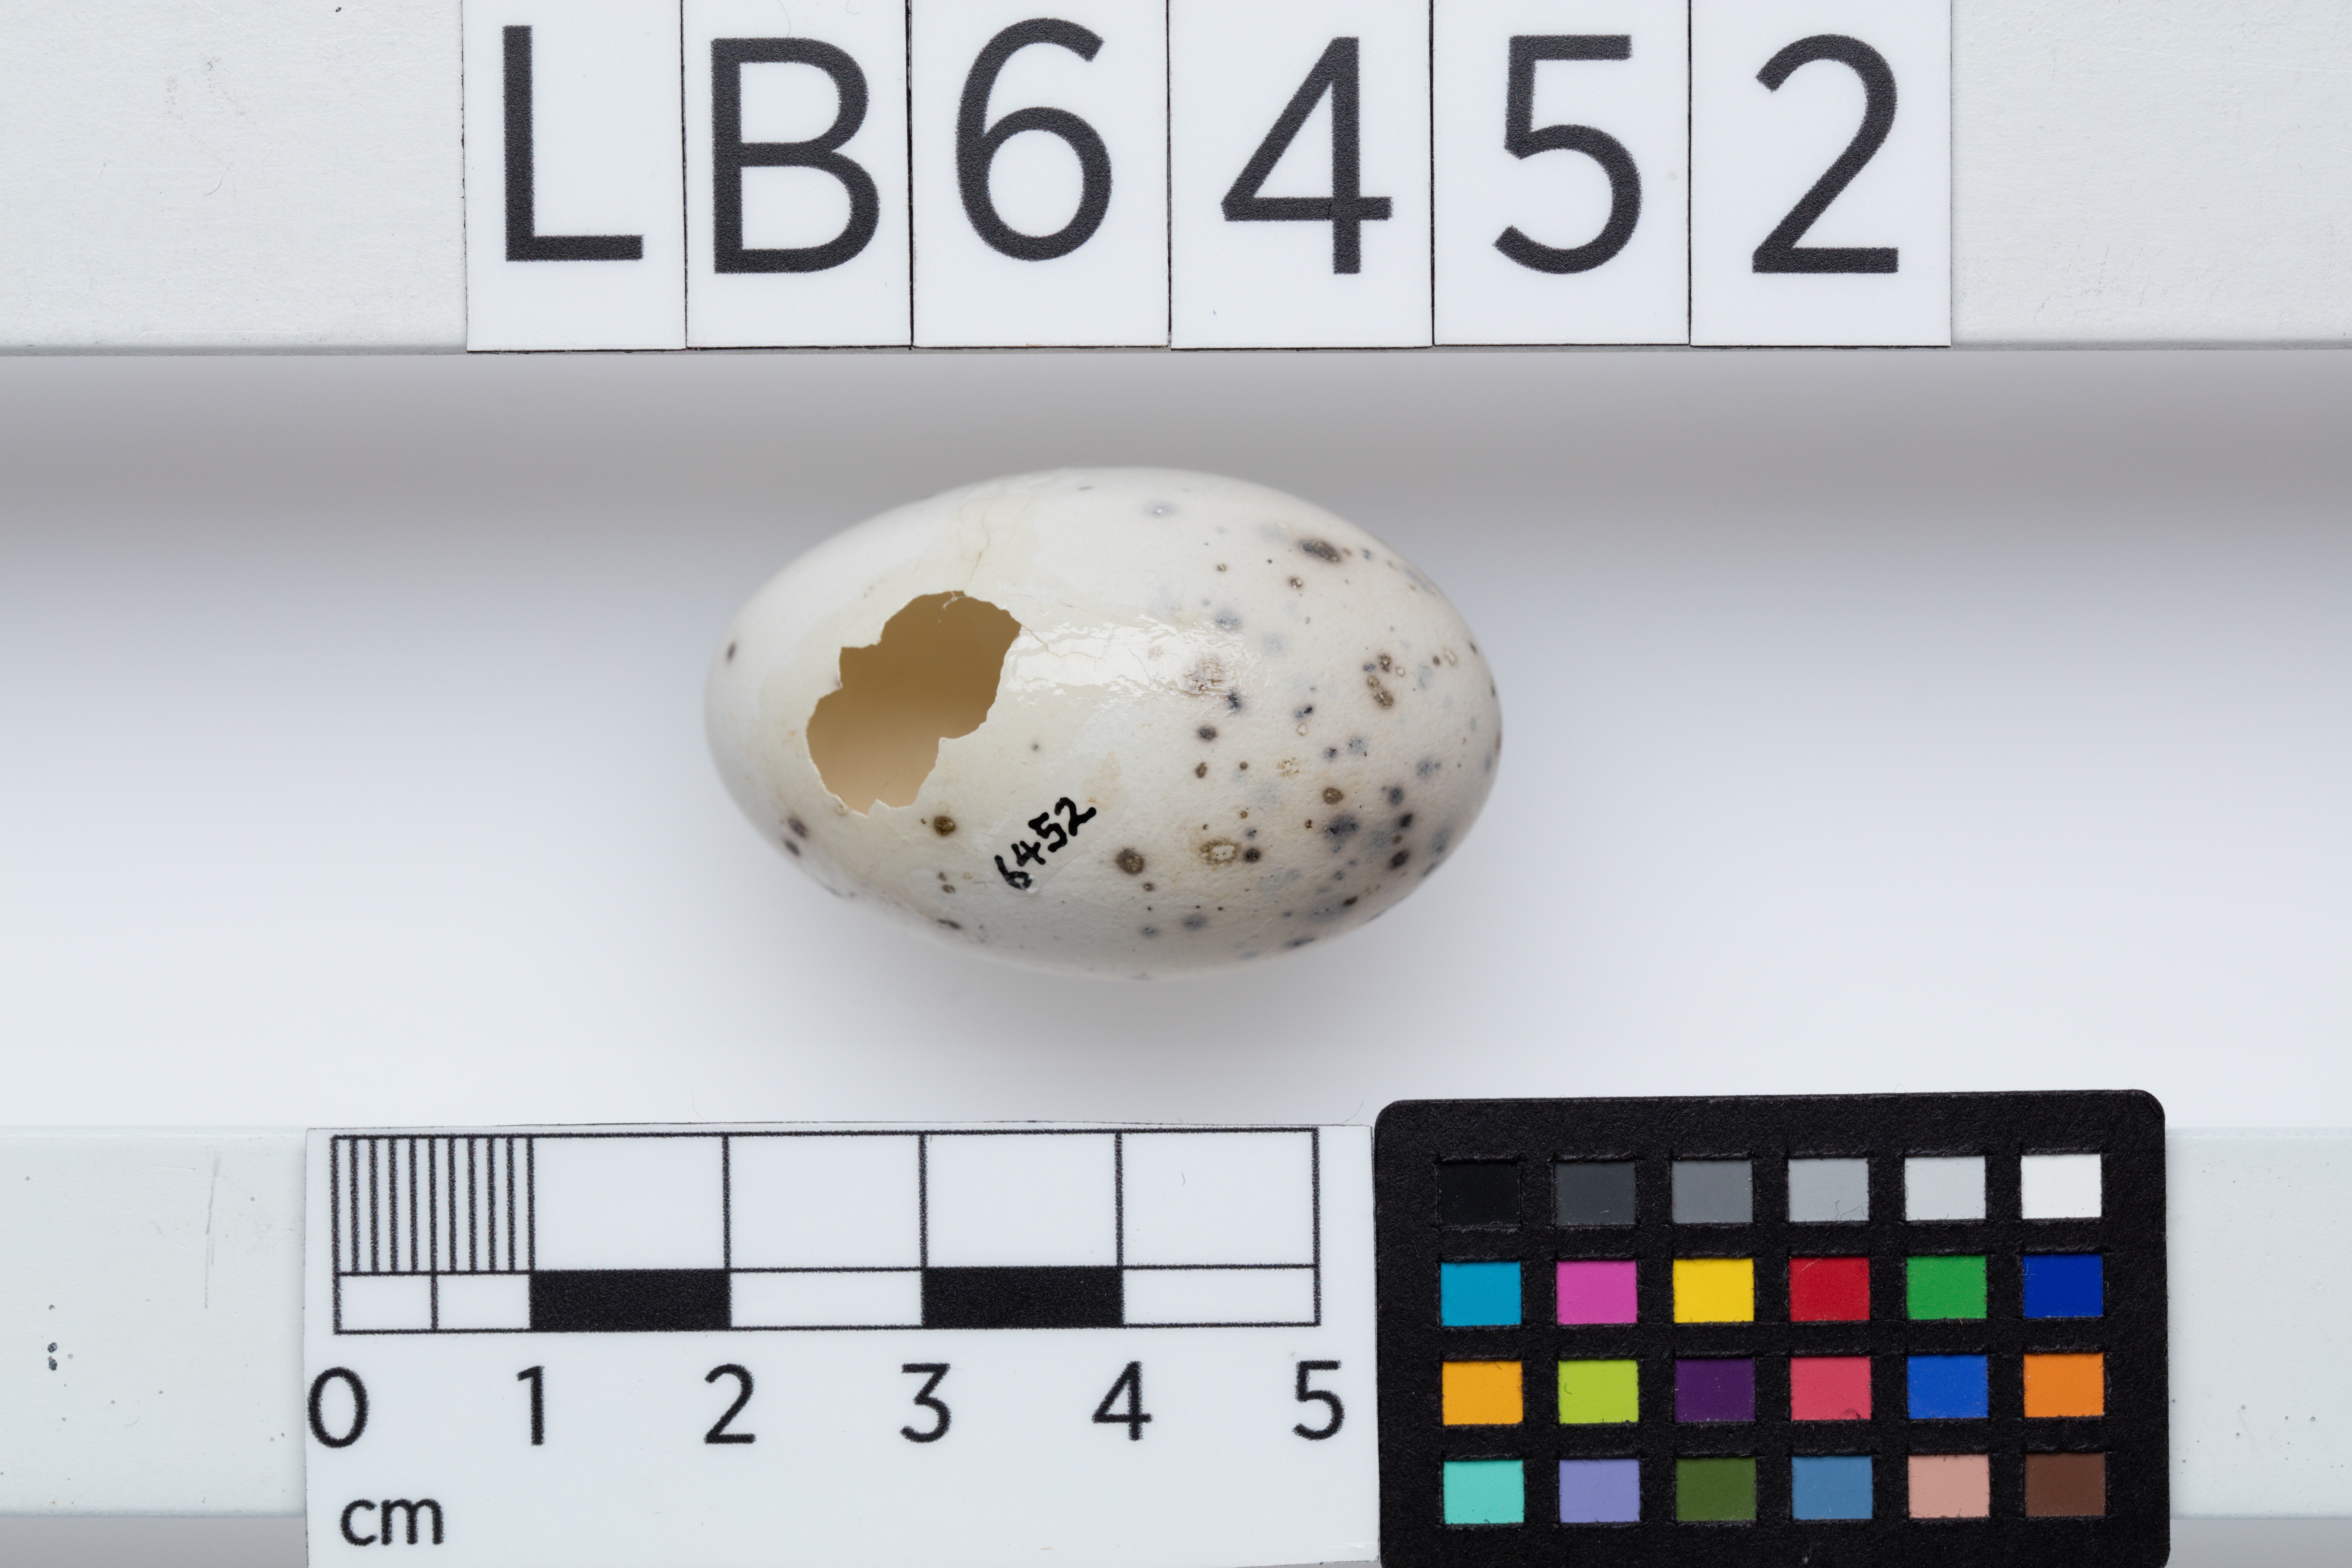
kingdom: Animalia
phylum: Chordata
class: Aves
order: Passeriformes
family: Callaeatidae
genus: Callaeas
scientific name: Callaeas cinereus
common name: South island kokako
